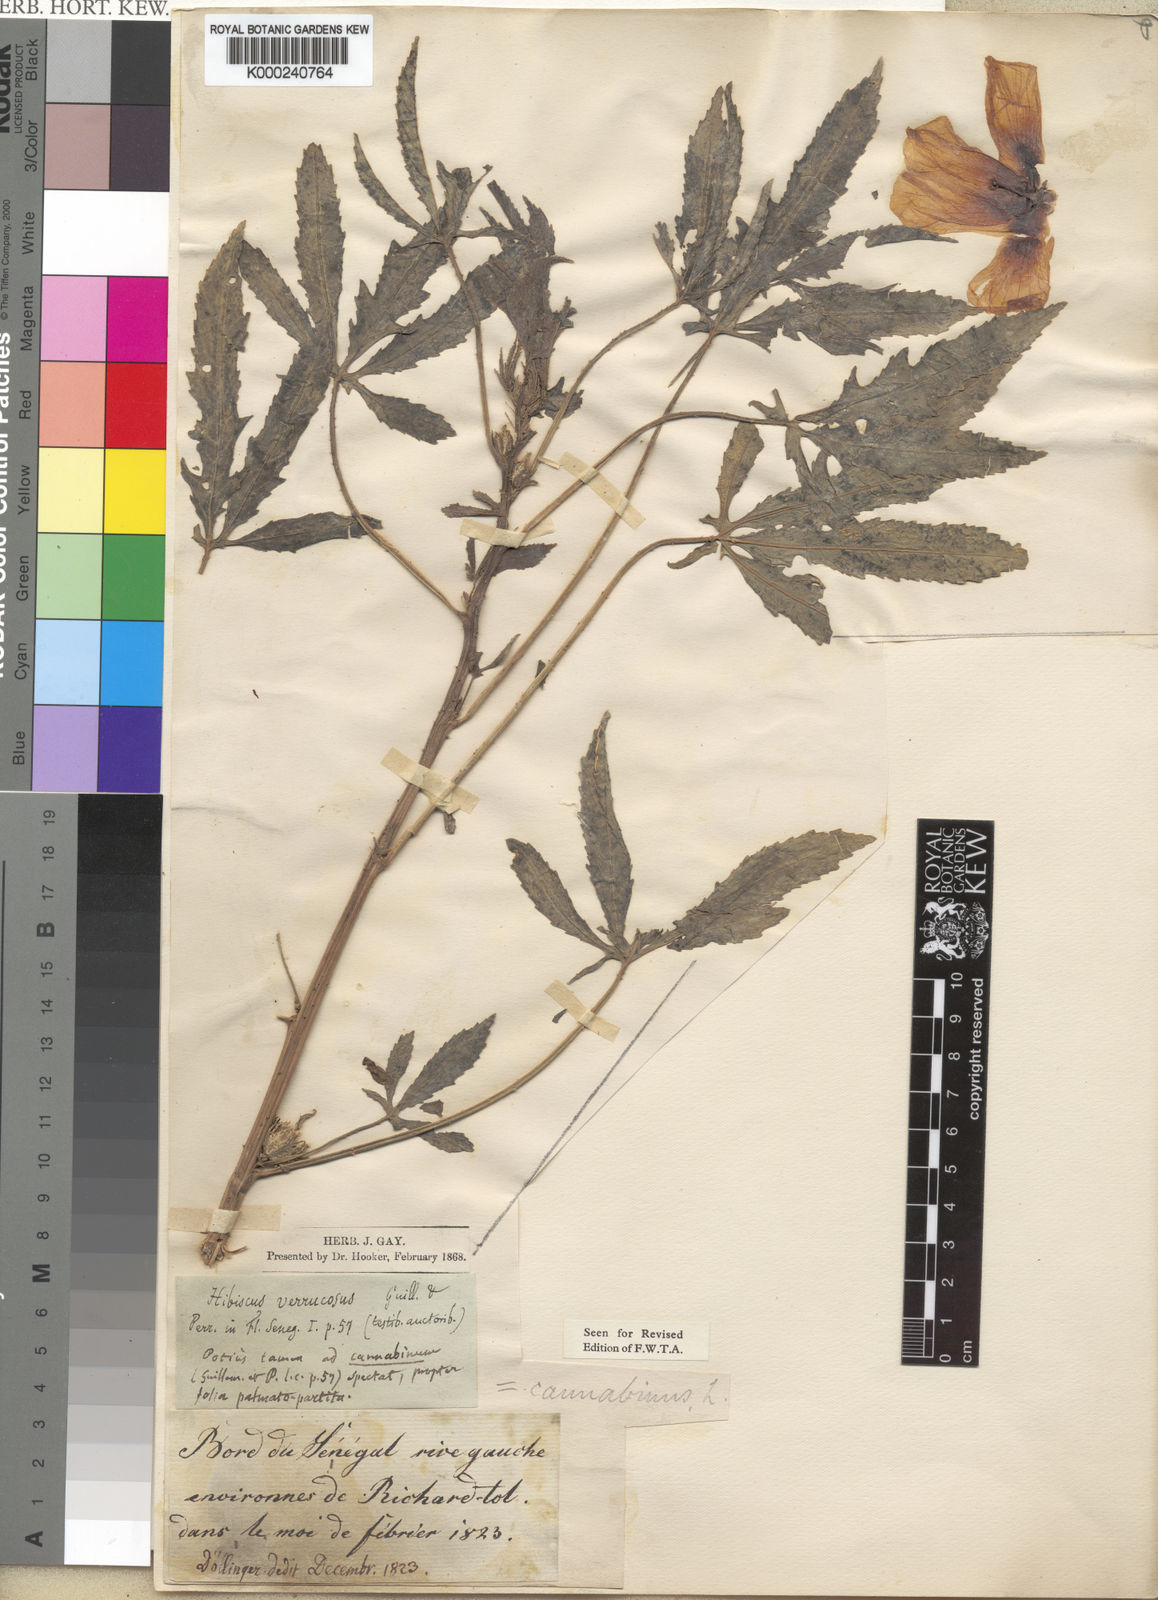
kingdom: Plantae
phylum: Tracheophyta
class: Magnoliopsida
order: Malvales
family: Malvaceae
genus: Hibiscus
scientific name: Hibiscus cannabinus
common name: Brown indianhemp
